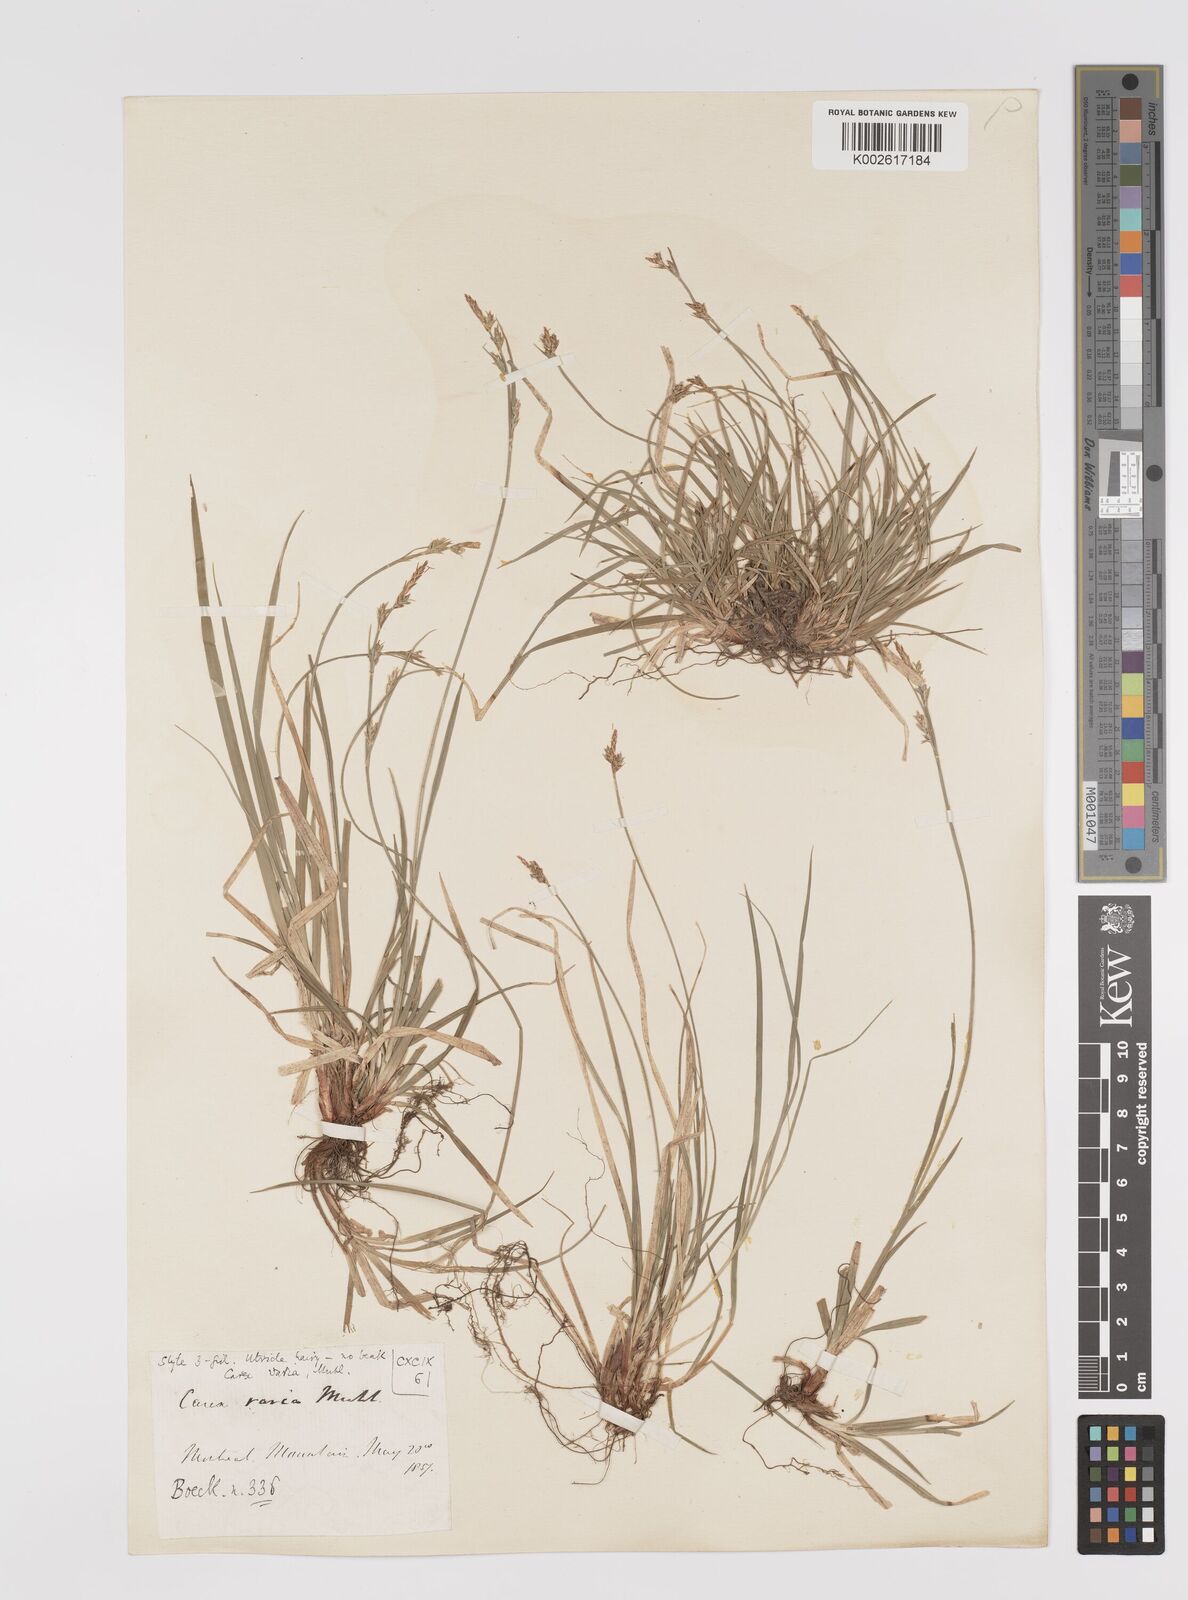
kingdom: Plantae
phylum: Tracheophyta
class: Liliopsida
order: Poales
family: Cyperaceae
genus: Carex
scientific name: Carex albicans
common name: Bellow-beaked sedge
